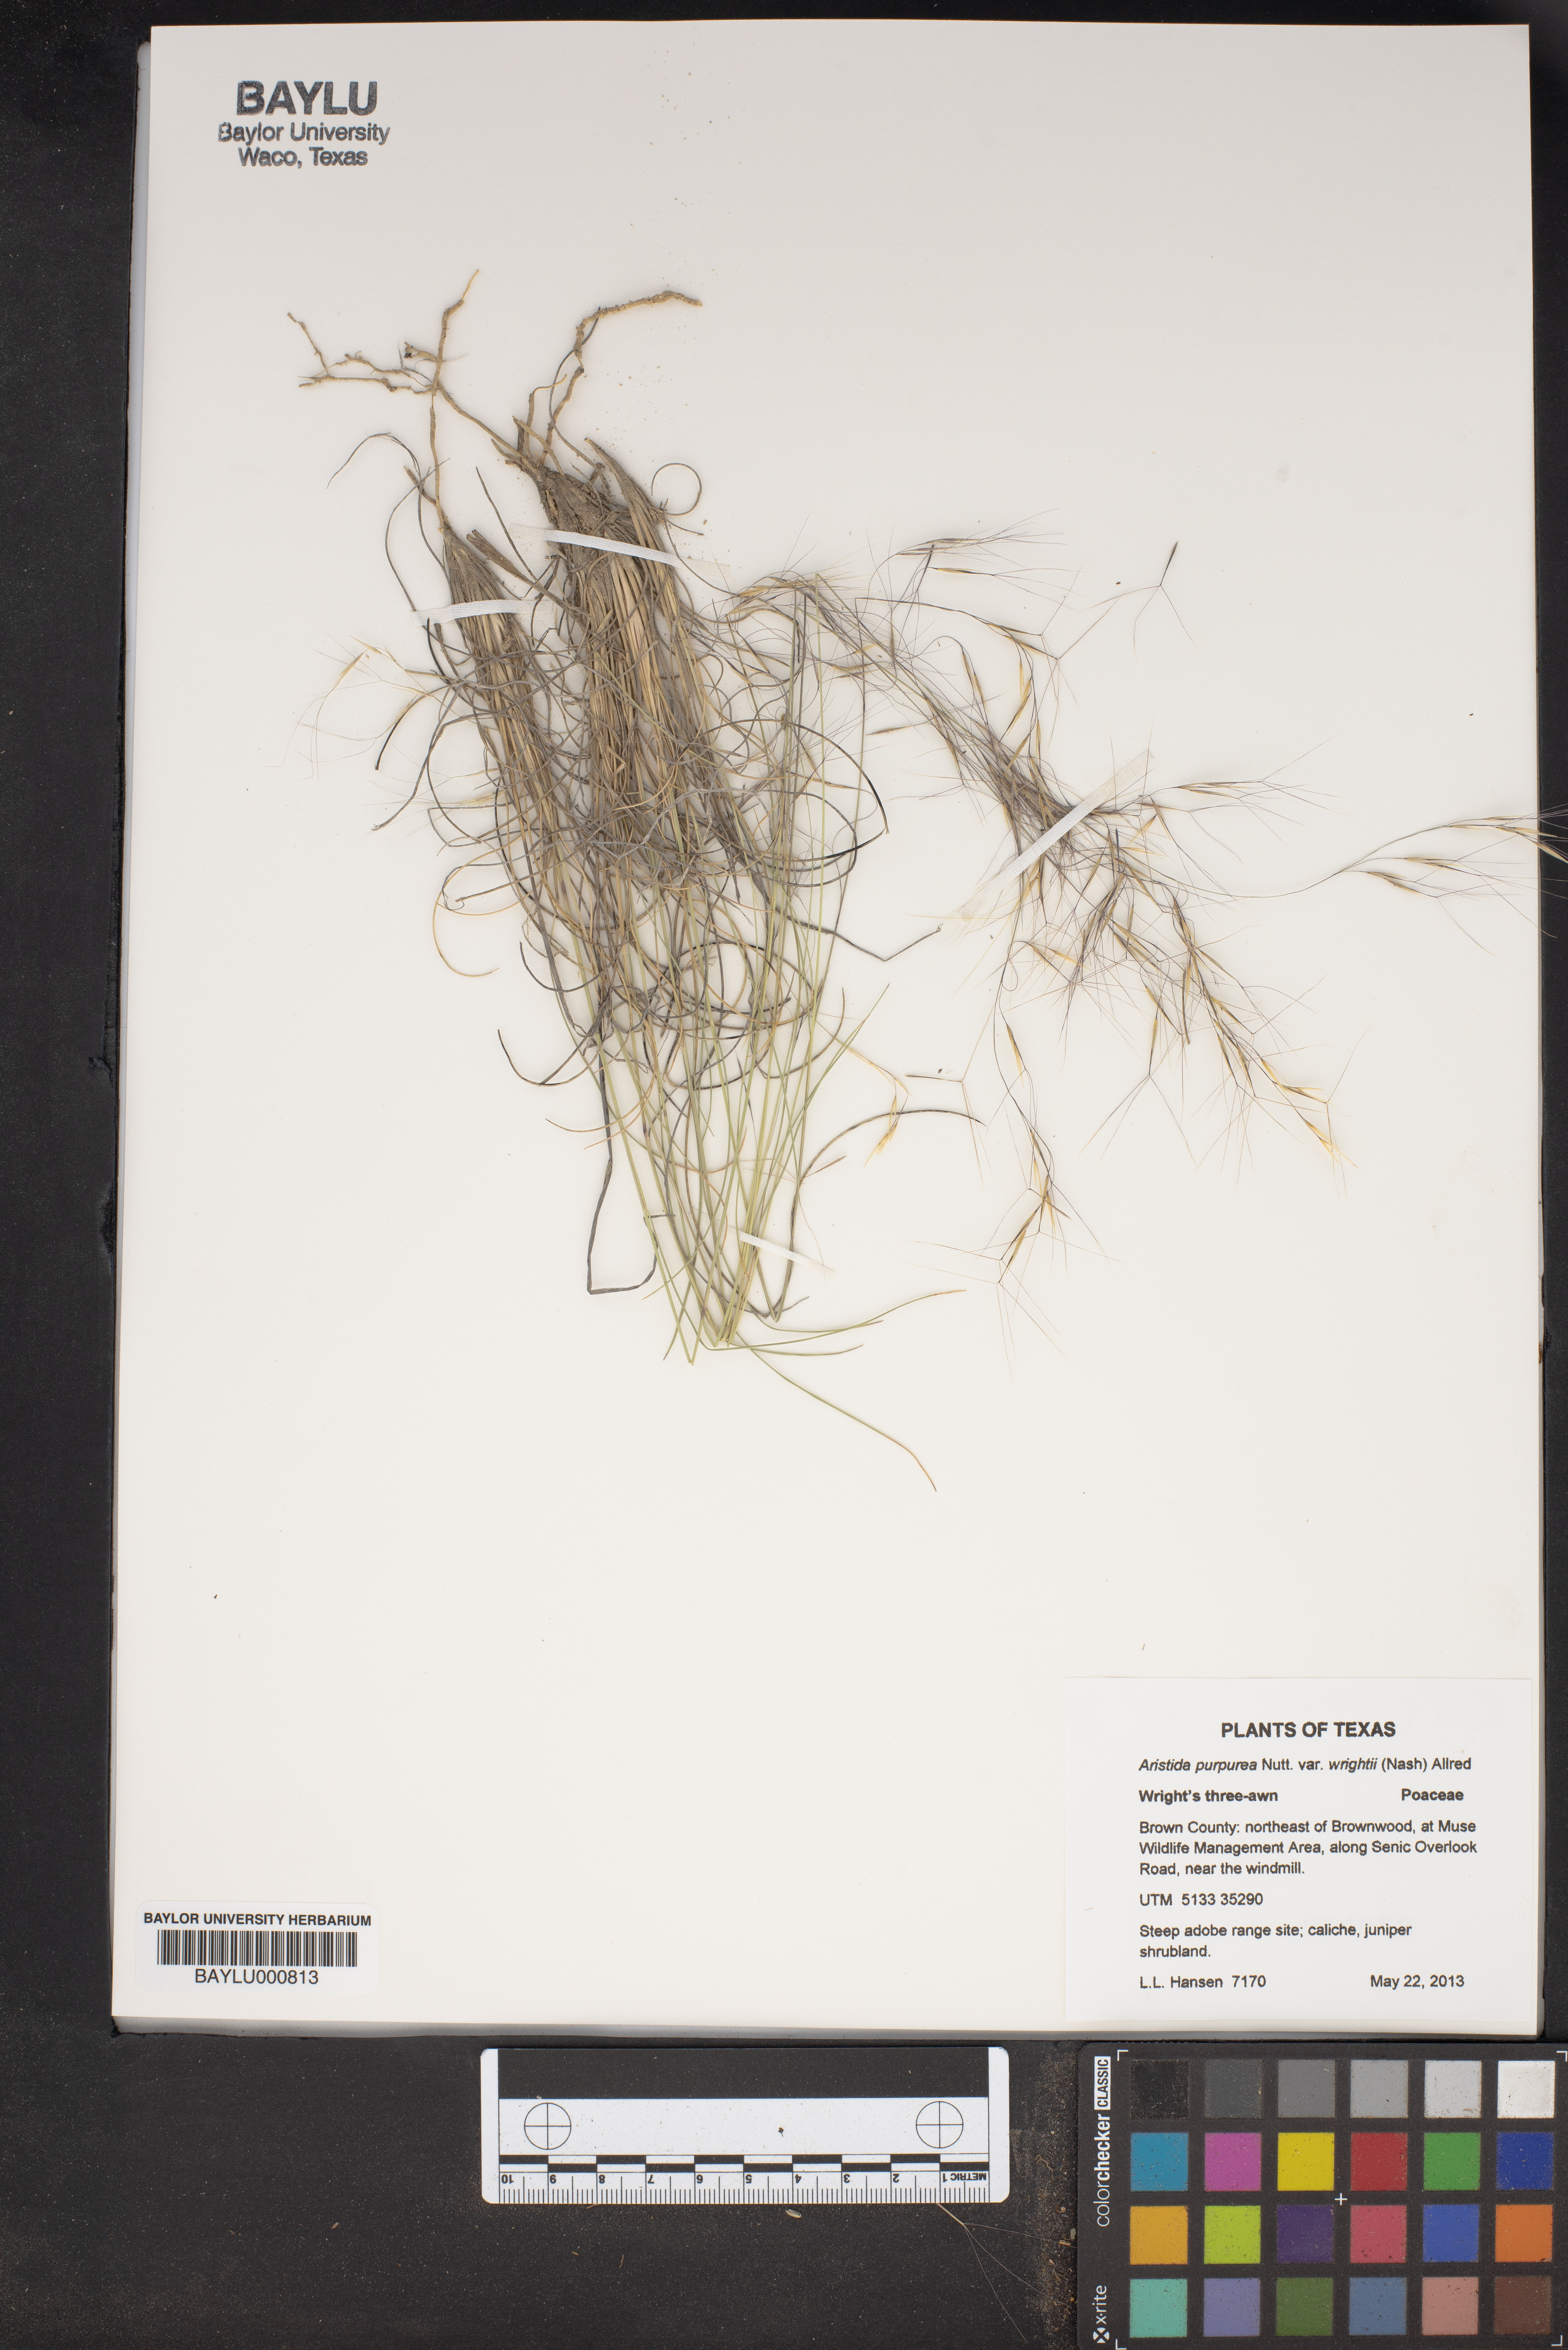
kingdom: Plantae
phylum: Tracheophyta
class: Liliopsida
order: Poales
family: Poaceae
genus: Aristida
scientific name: Aristida wrightii
